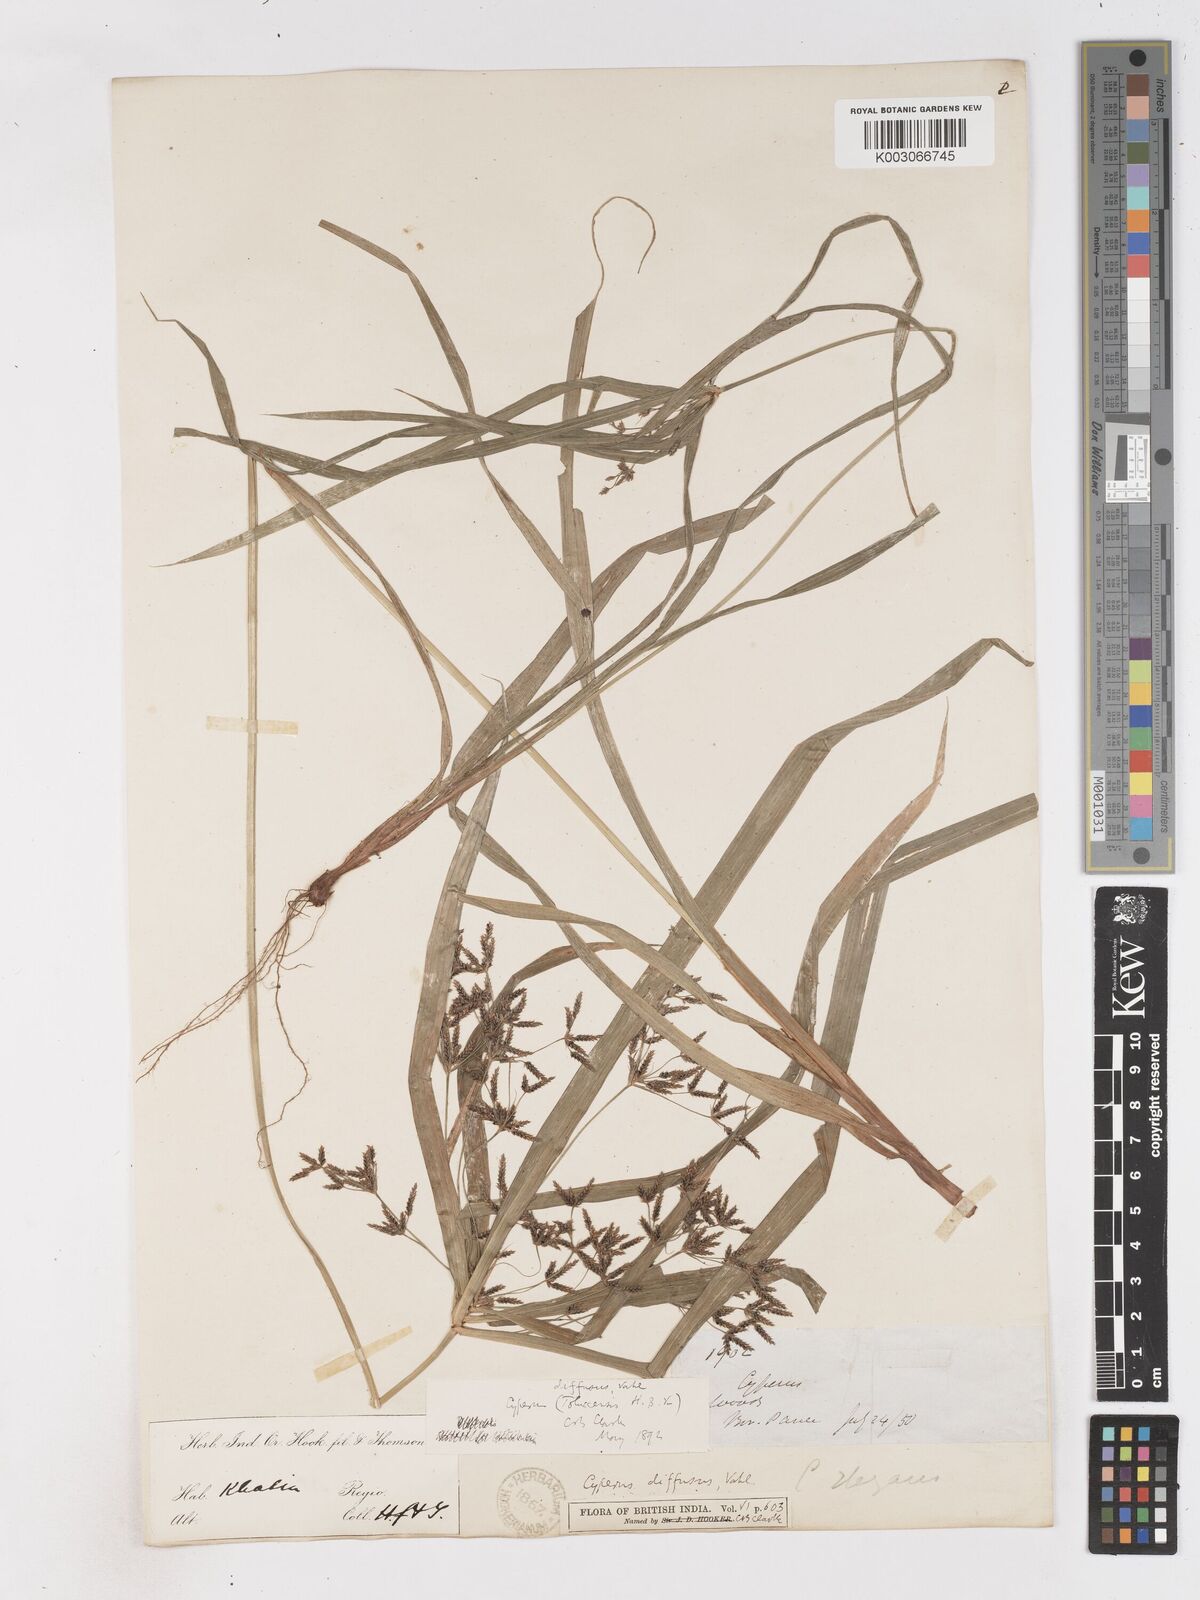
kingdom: Plantae
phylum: Tracheophyta
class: Liliopsida
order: Poales
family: Cyperaceae
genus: Cyperus
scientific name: Cyperus diffusus
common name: Dwarf umbrella grass
